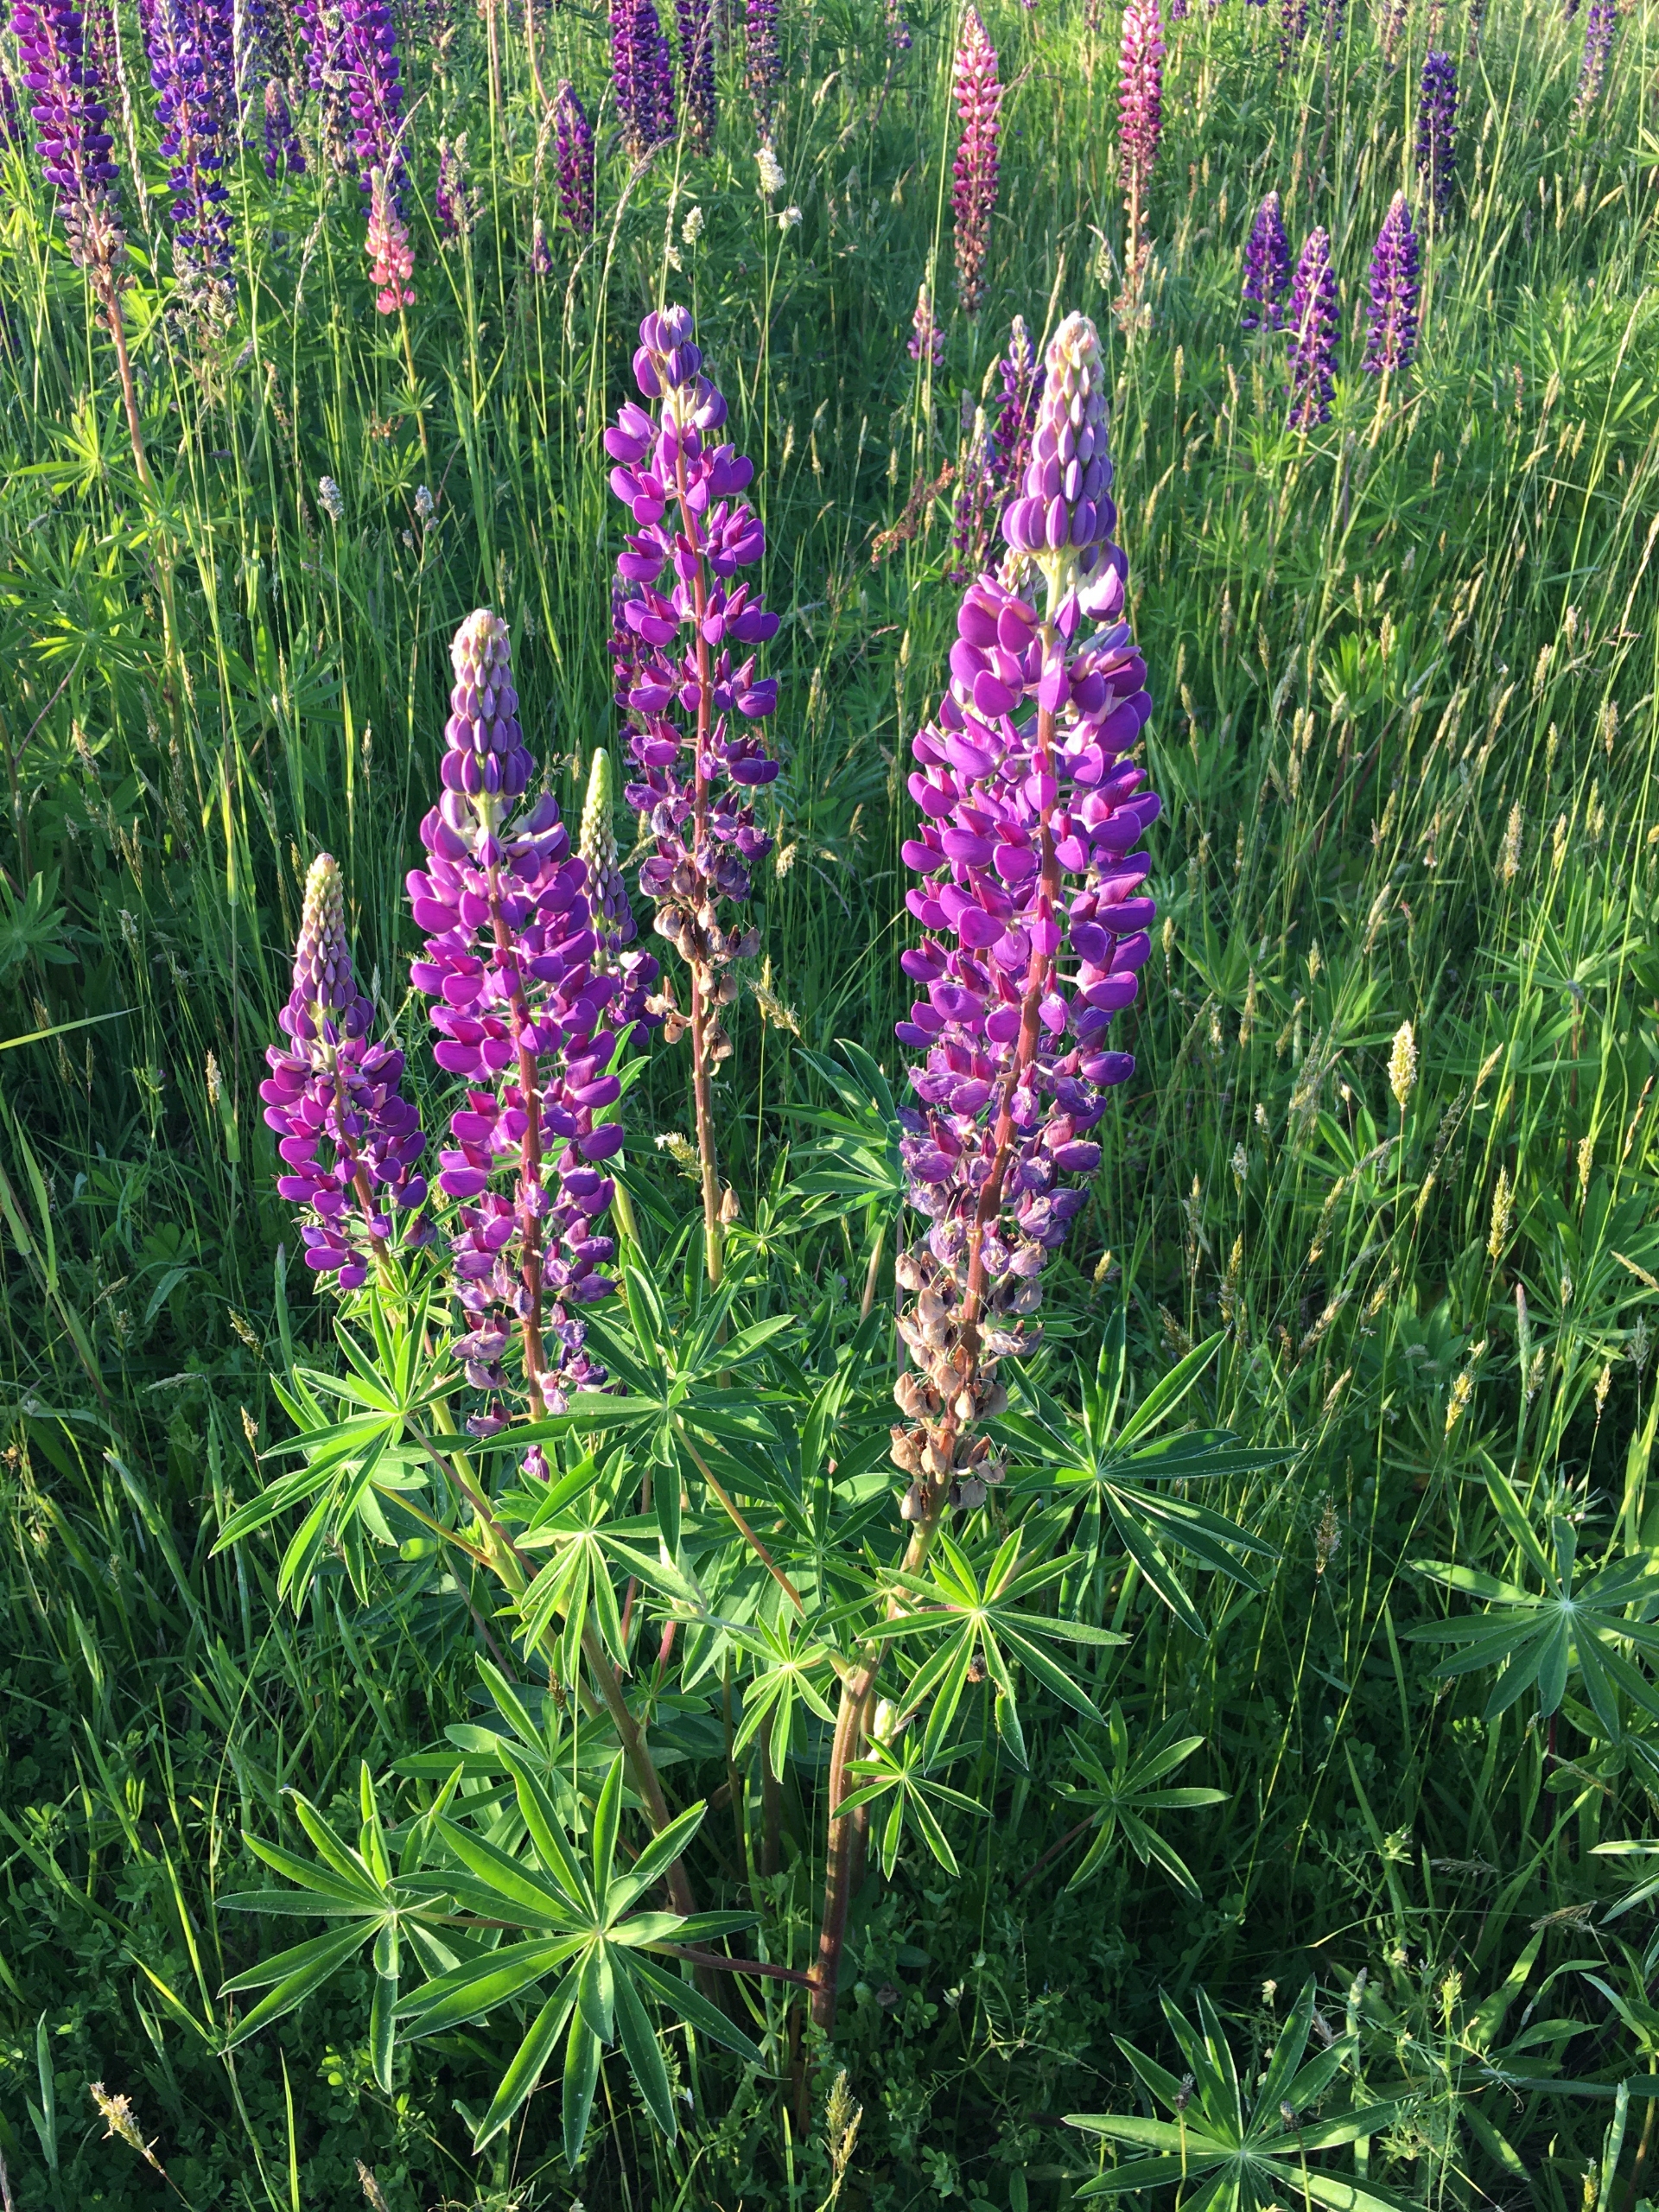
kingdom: Plantae
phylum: Tracheophyta
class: Magnoliopsida
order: Fabales
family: Fabaceae
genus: Lupinus
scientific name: Lupinus polyphyllus
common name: Mangebladet lupin
